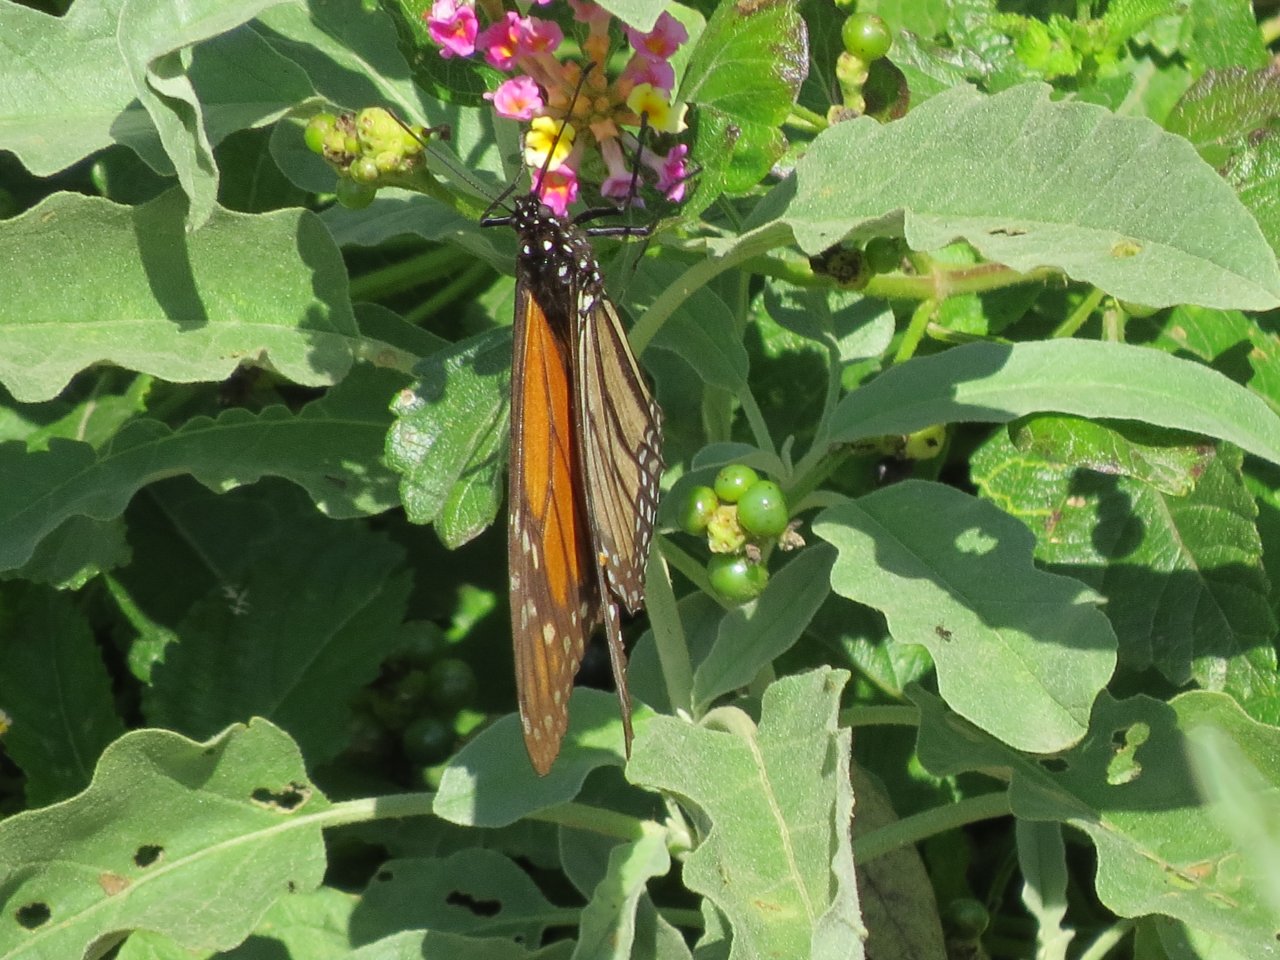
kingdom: Animalia
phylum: Arthropoda
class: Insecta
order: Lepidoptera
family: Nymphalidae
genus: Danaus
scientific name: Danaus plexippus
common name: Monarch
